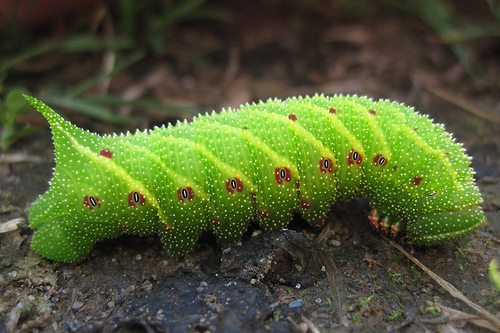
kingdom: Animalia
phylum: Arthropoda
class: Insecta
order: Lepidoptera
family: Sphingidae
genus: Paonias
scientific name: Paonias excaecata
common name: Blind-eyed sphinx
